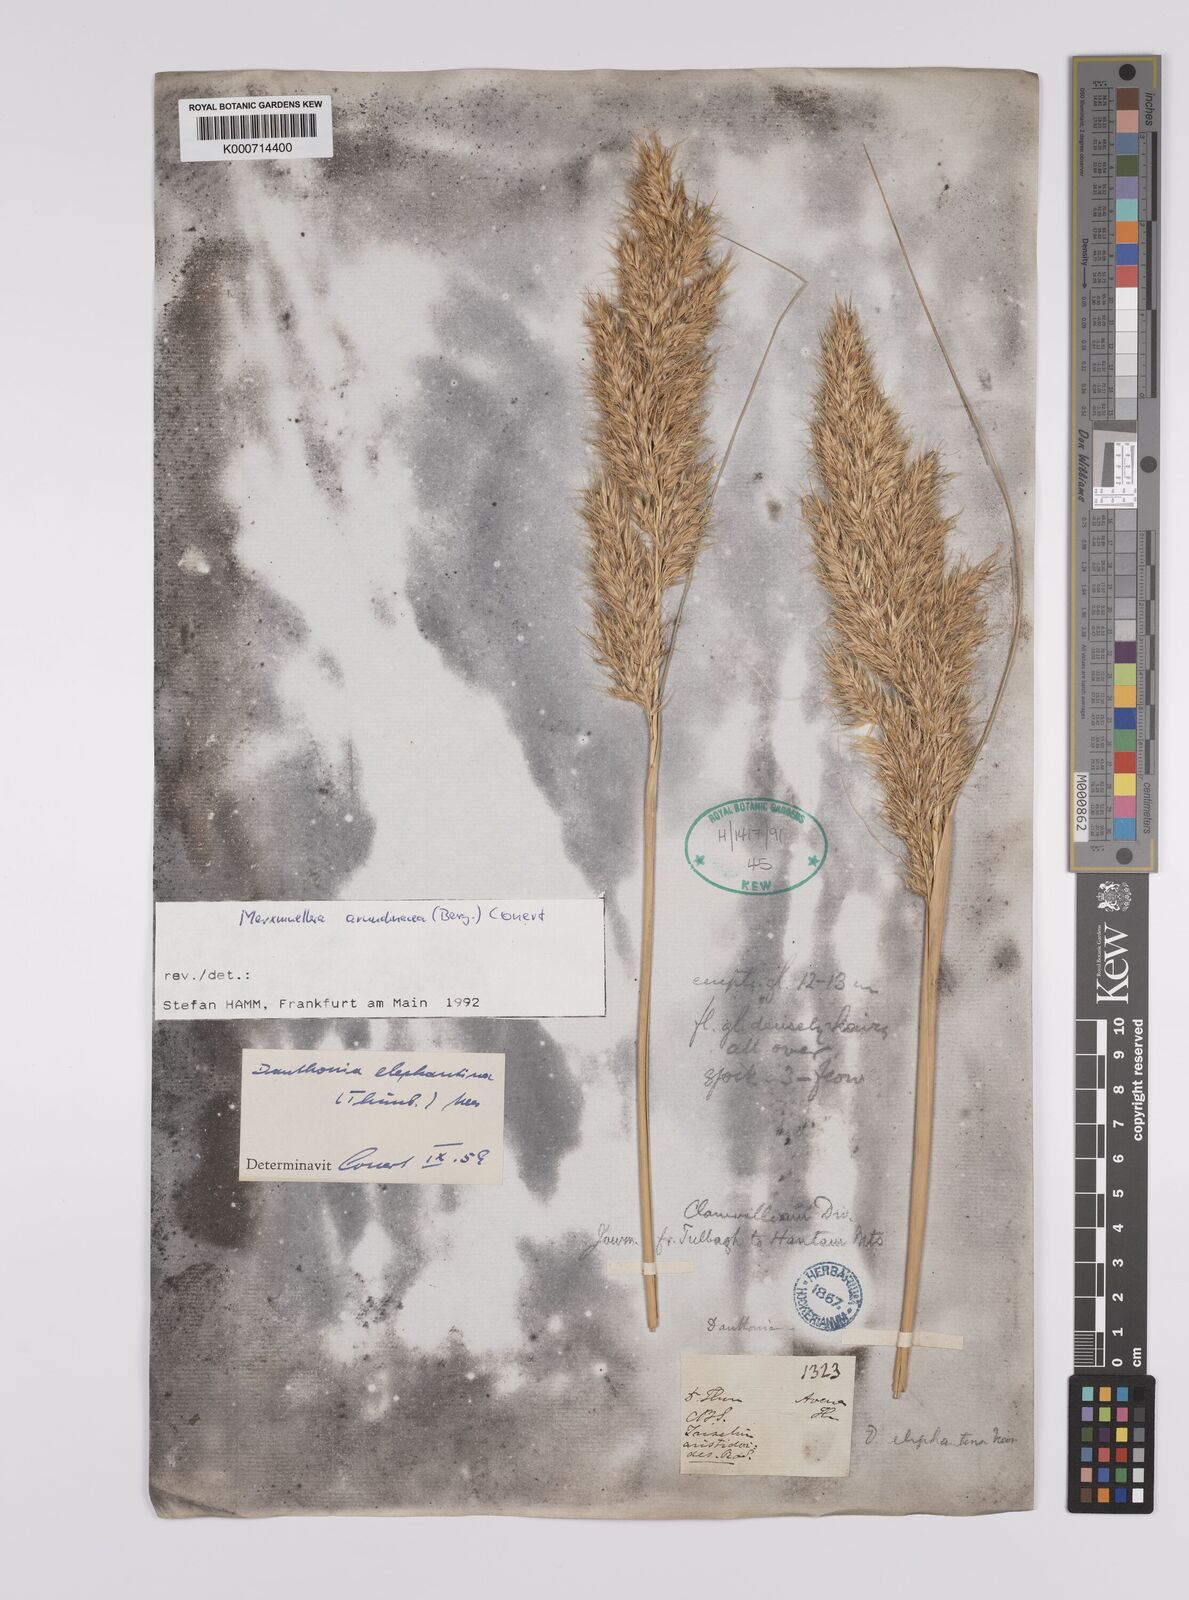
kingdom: Plantae
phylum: Tracheophyta
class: Liliopsida
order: Poales
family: Poaceae
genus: Rytidosperma
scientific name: Rytidosperma
